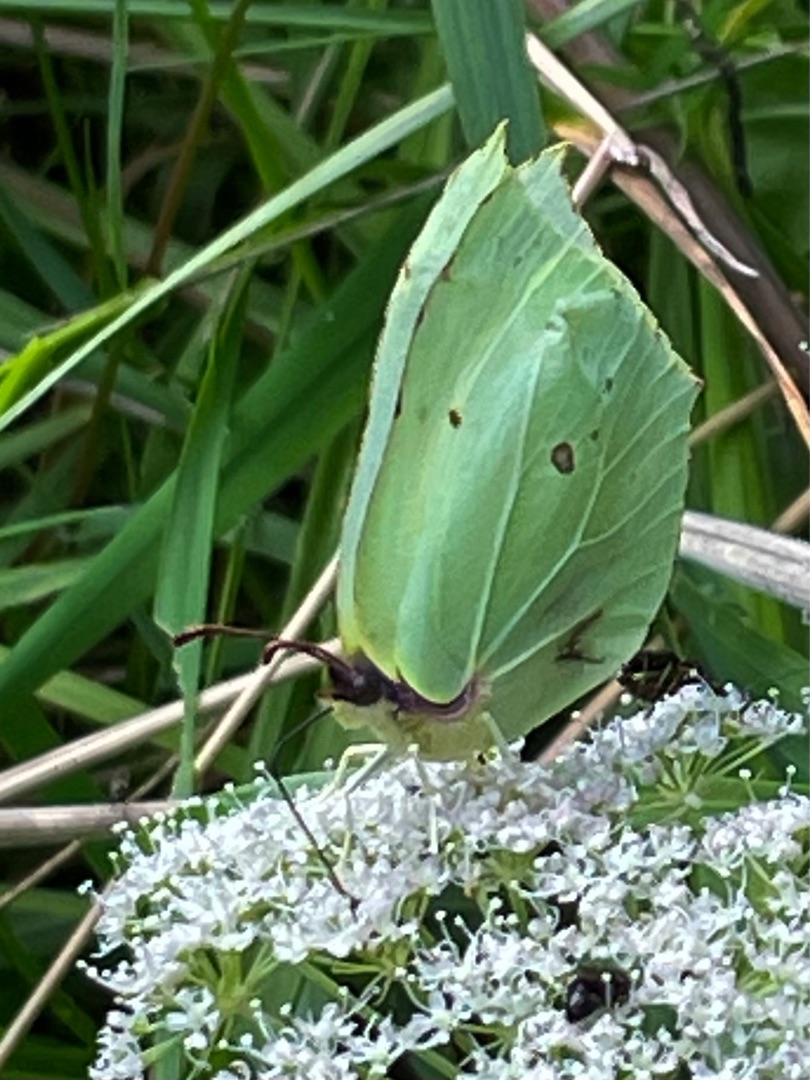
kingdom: Animalia
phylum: Arthropoda
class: Insecta
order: Lepidoptera
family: Pieridae
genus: Gonepteryx
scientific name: Gonepteryx rhamni
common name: Citronsommerfugl
